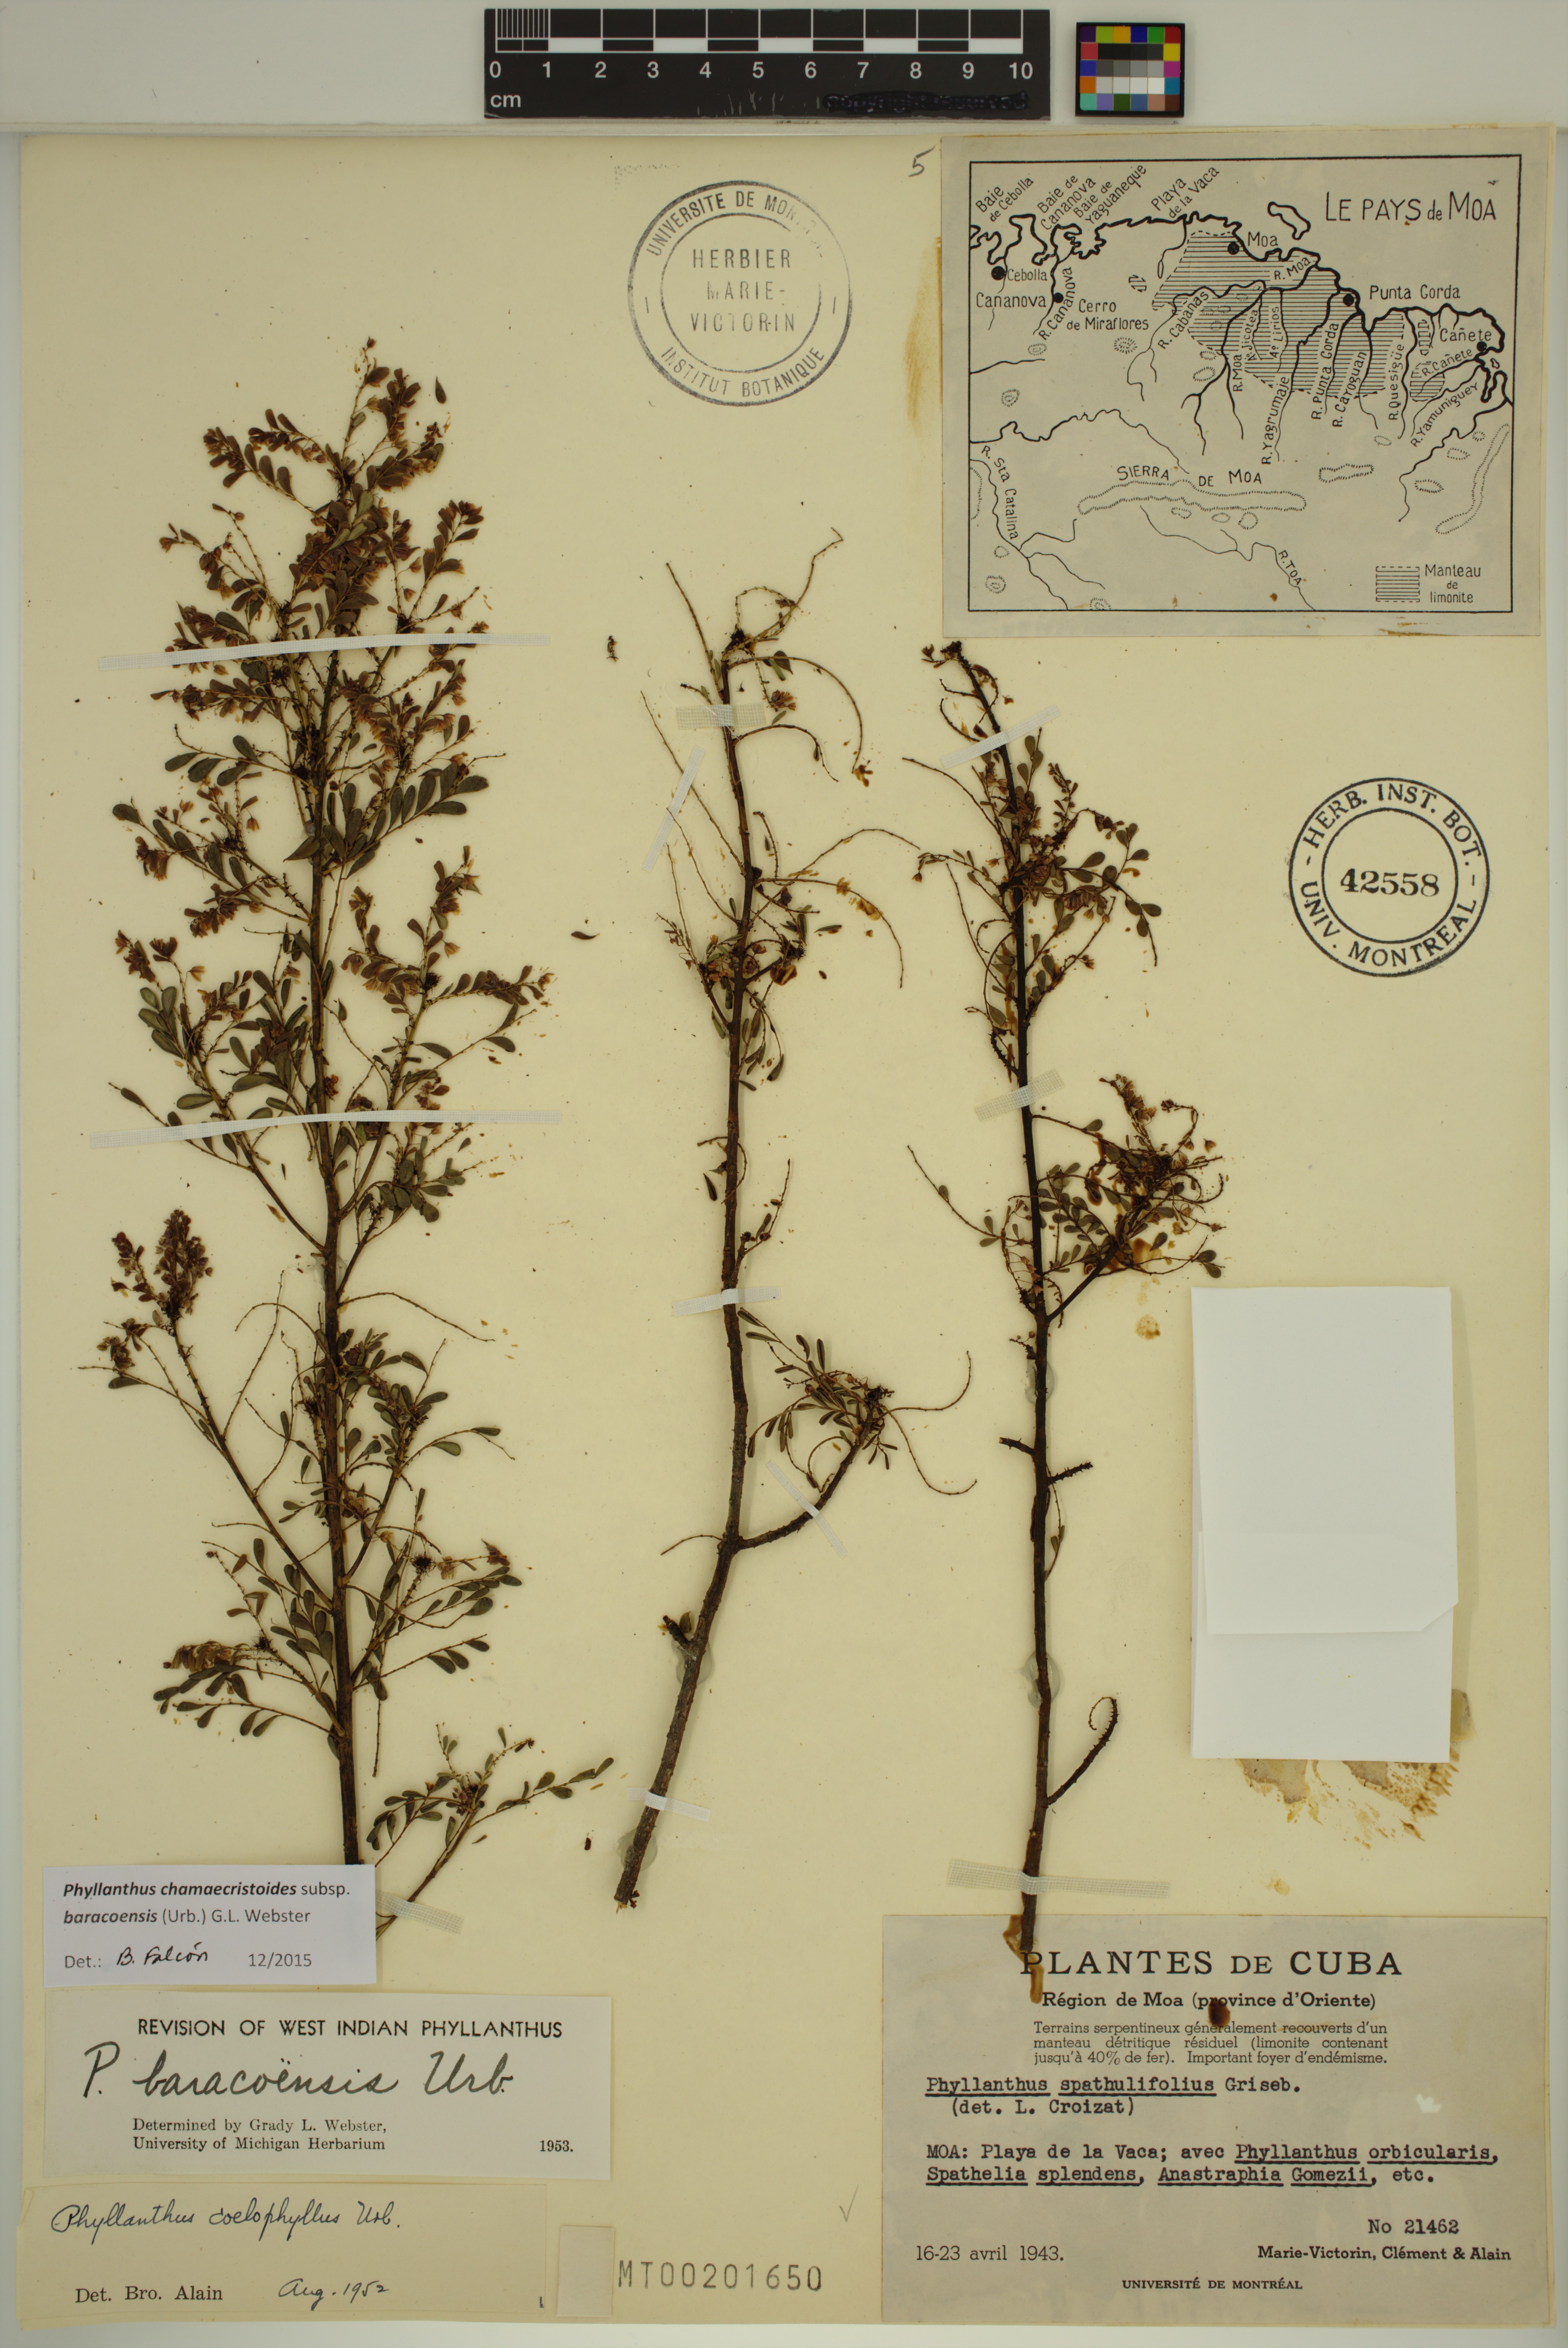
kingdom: Plantae
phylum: Tracheophyta
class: Magnoliopsida
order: Malpighiales
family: Phyllanthaceae
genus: Phyllanthus
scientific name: Phyllanthus chamaecristoides
